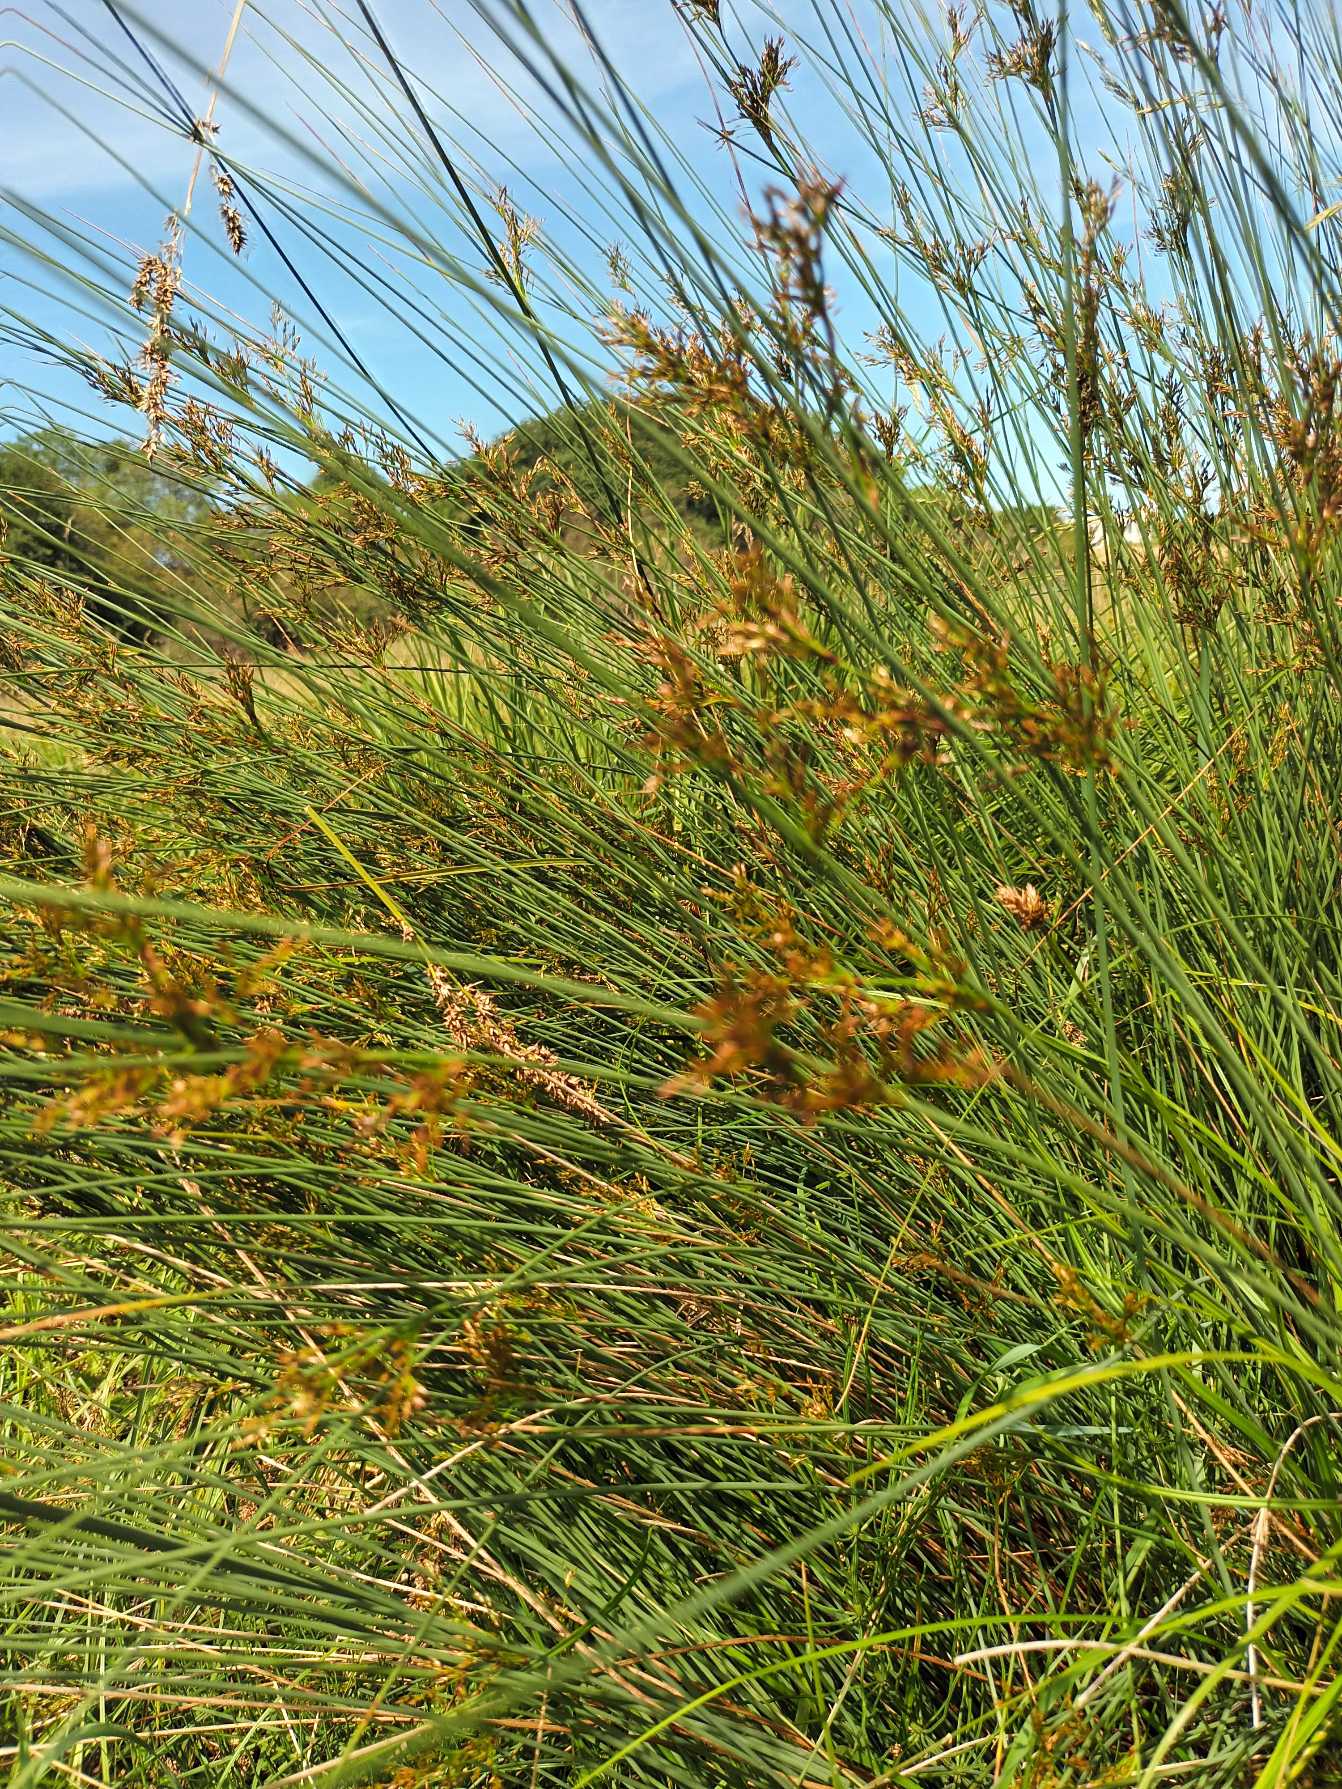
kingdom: Plantae
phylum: Tracheophyta
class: Liliopsida
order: Poales
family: Juncaceae
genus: Juncus
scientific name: Juncus inflexus
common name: Blågrå siv
